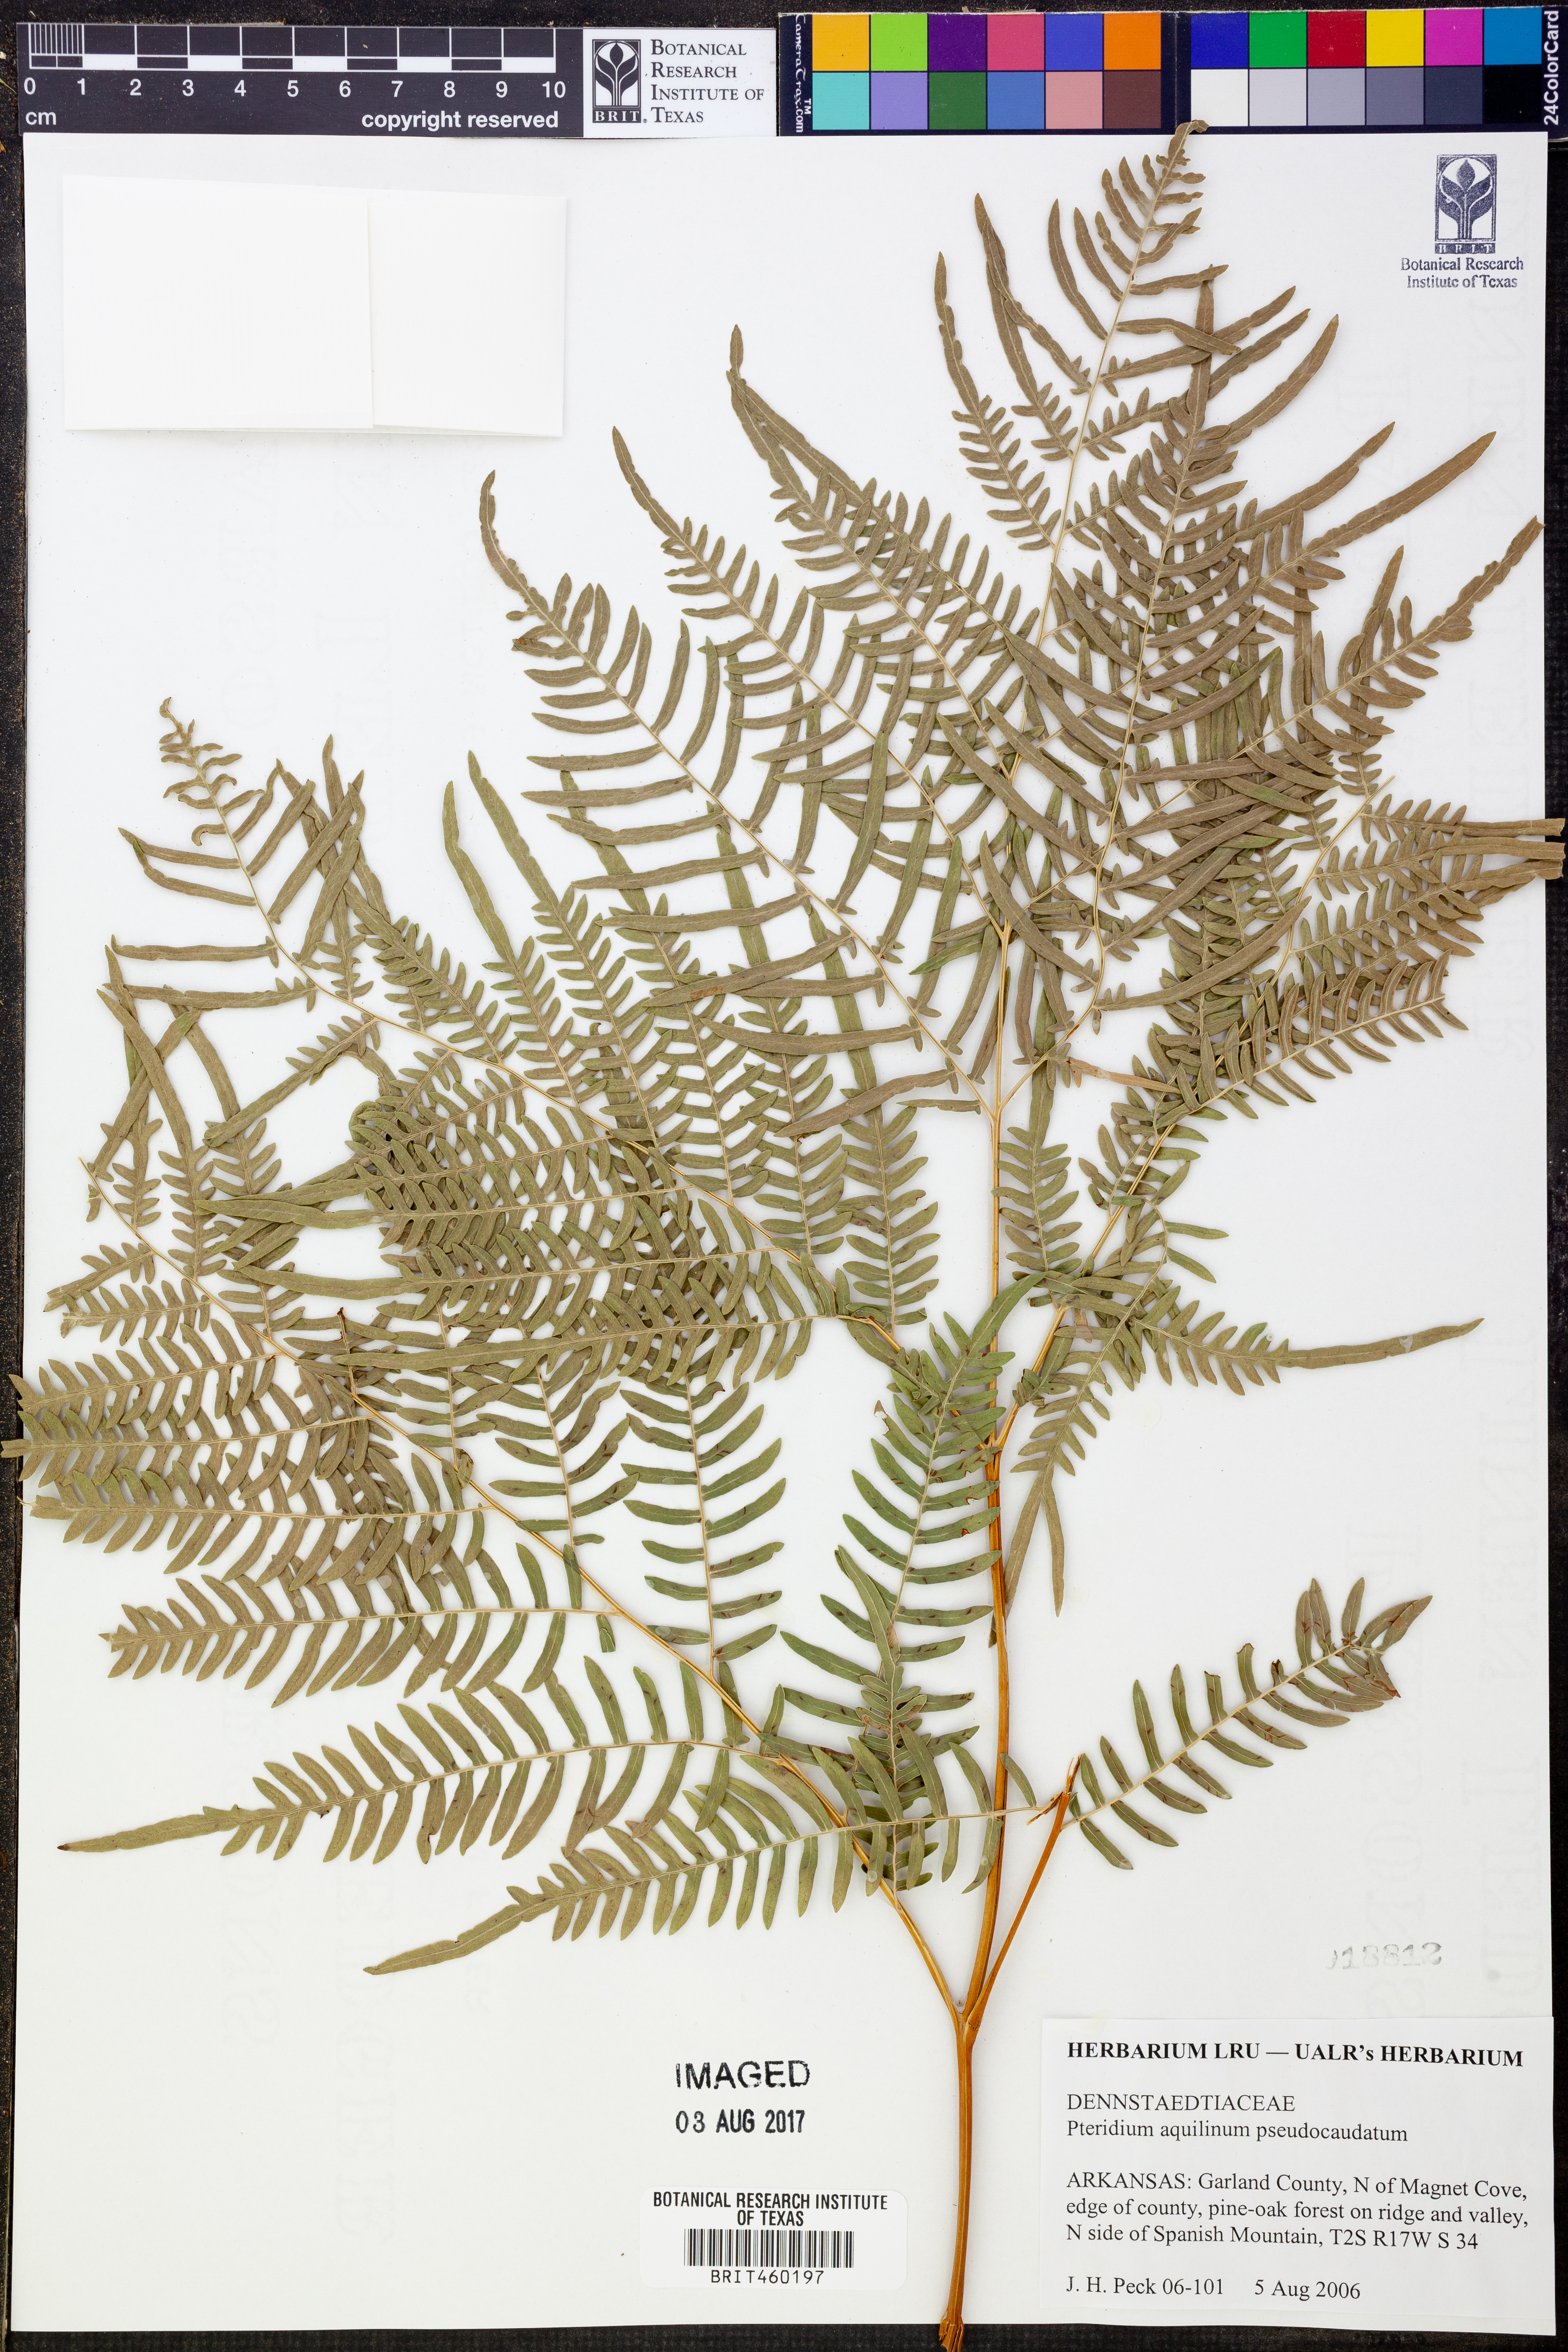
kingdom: Plantae
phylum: Tracheophyta
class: Polypodiopsida
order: Polypodiales
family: Dennstaedtiaceae
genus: Pteridium
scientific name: Pteridium aquilinum
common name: Bracken
